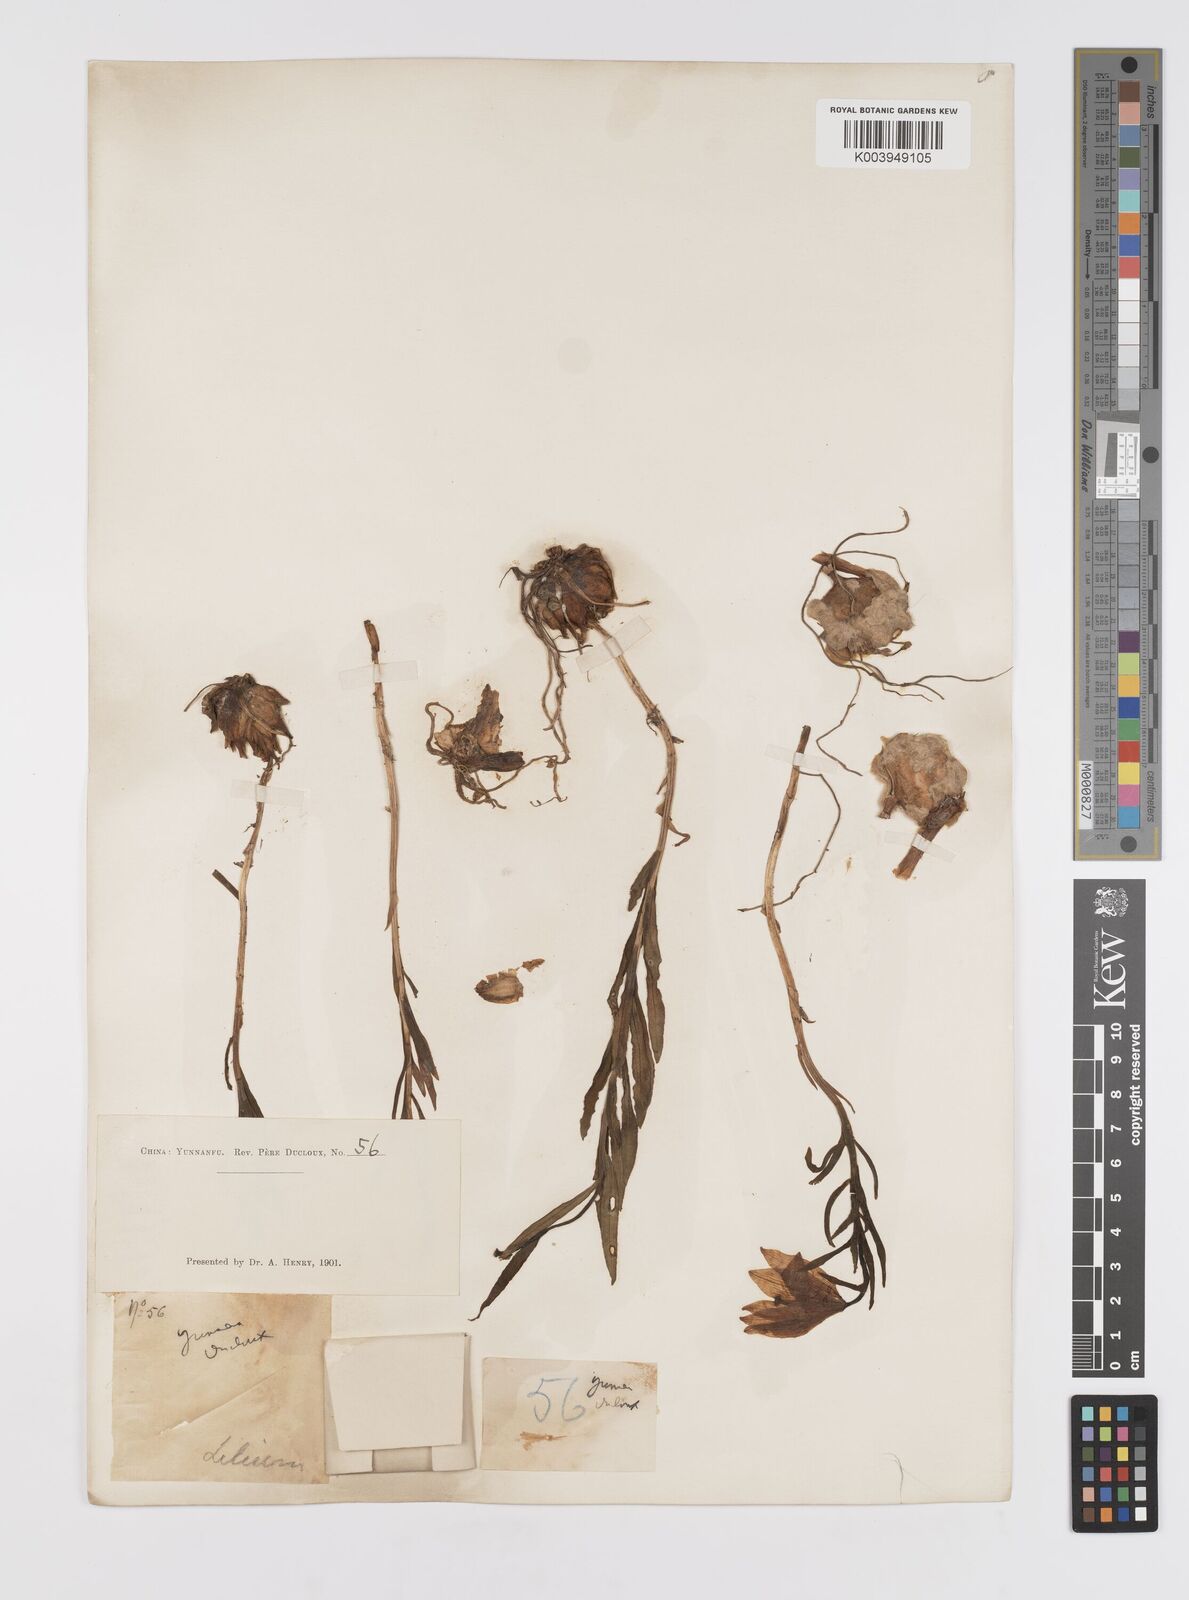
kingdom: Plantae
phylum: Tracheophyta
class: Liliopsida
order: Liliales
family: Liliaceae
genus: Lilium
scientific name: Lilium amoenum
